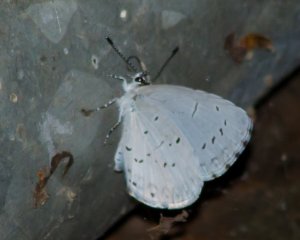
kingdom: Animalia
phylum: Arthropoda
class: Insecta
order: Lepidoptera
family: Lycaenidae
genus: Cyaniris
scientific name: Cyaniris neglecta
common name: Summer Azure
